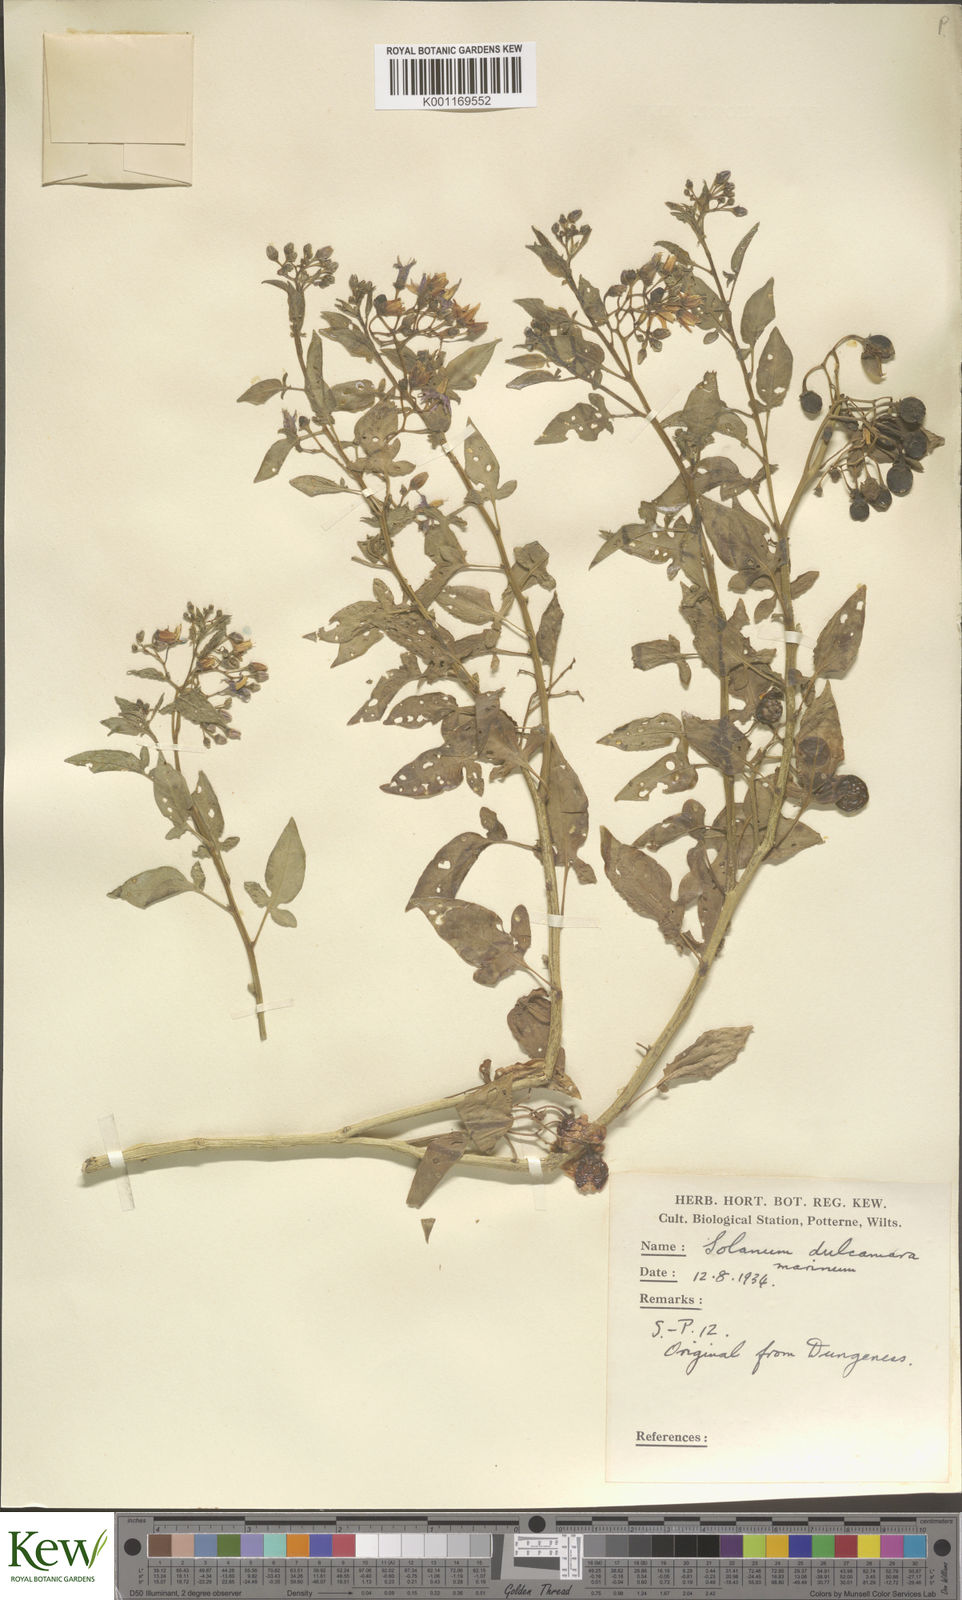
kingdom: Plantae
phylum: Tracheophyta
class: Magnoliopsida
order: Solanales
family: Solanaceae
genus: Solanum
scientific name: Solanum dulcamara
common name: Climbing nightshade
